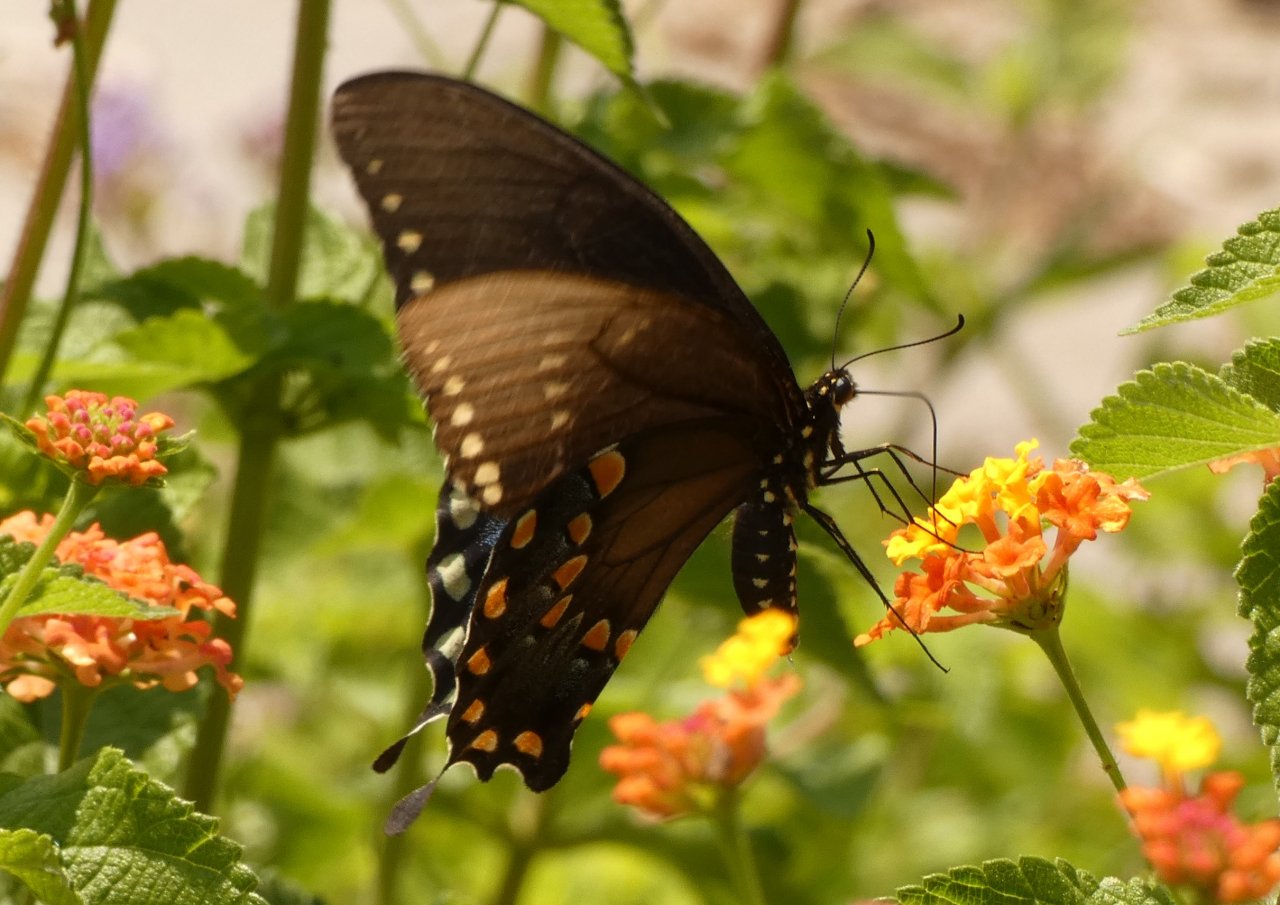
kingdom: Animalia
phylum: Arthropoda
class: Insecta
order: Lepidoptera
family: Papilionidae
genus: Pterourus
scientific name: Pterourus troilus
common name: Spicebush Swallowtail
